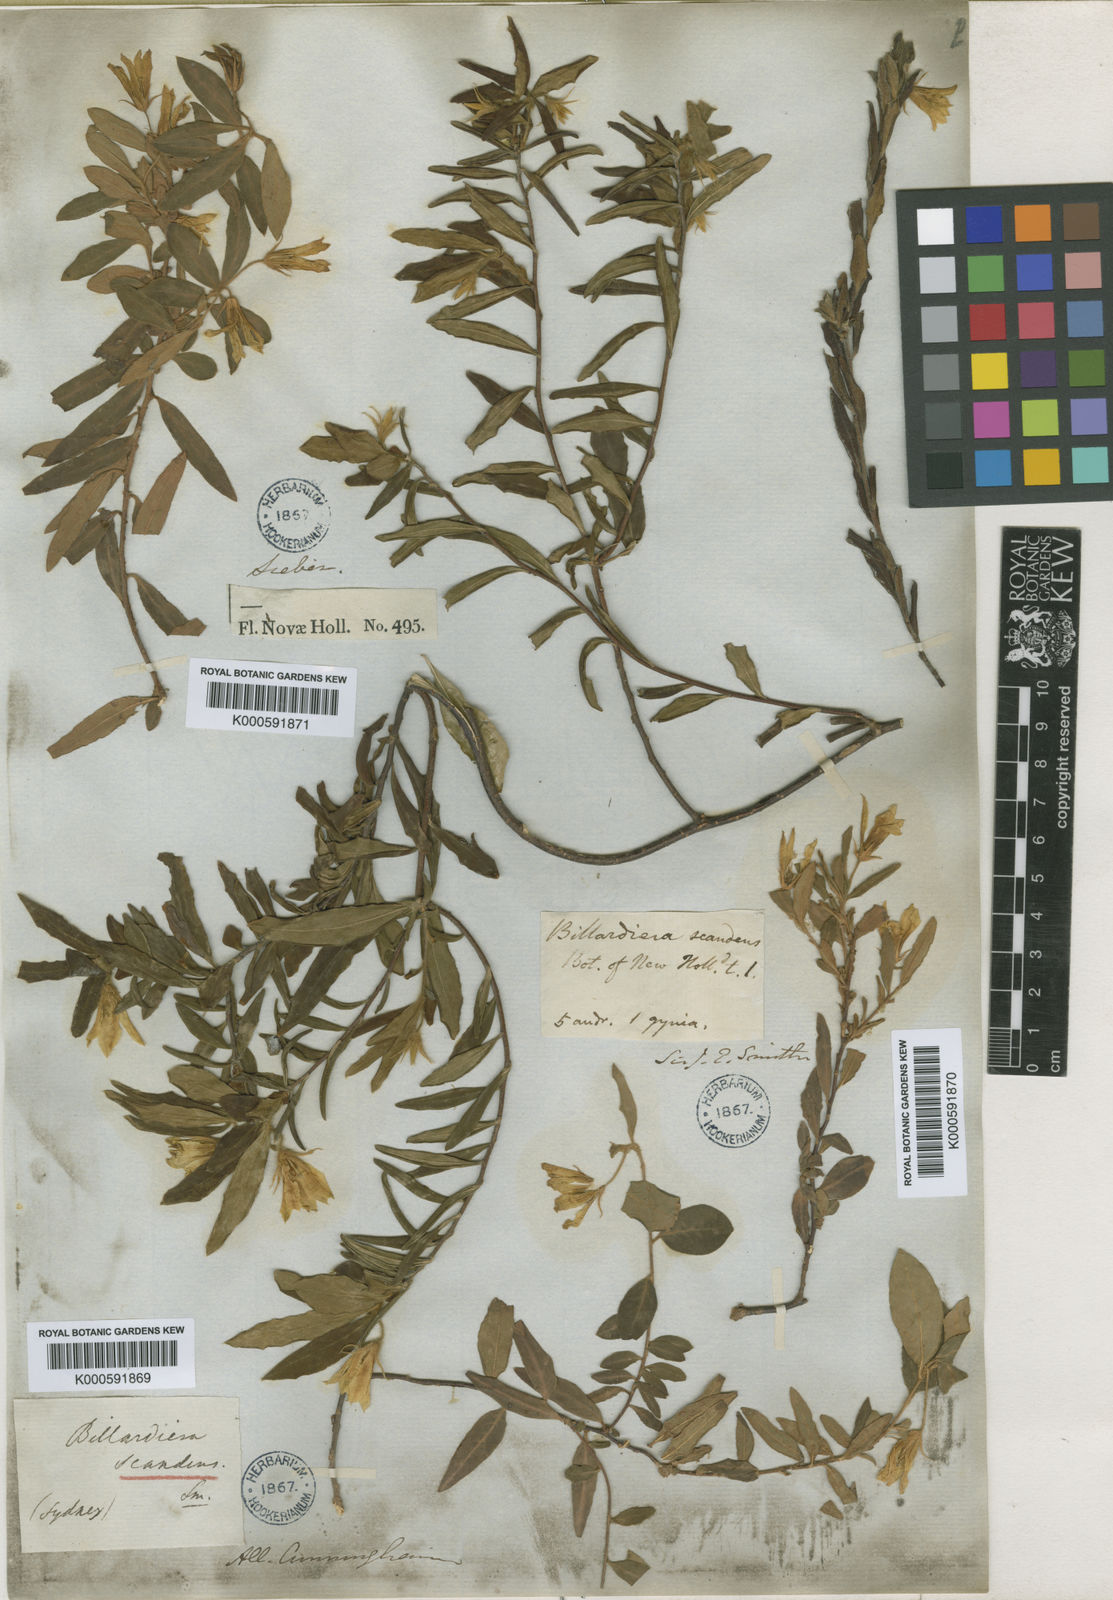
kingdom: Plantae
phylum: Tracheophyta
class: Magnoliopsida
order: Apiales
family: Pittosporaceae
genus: Billardiera
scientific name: Billardiera scandens
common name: Apple-berry
